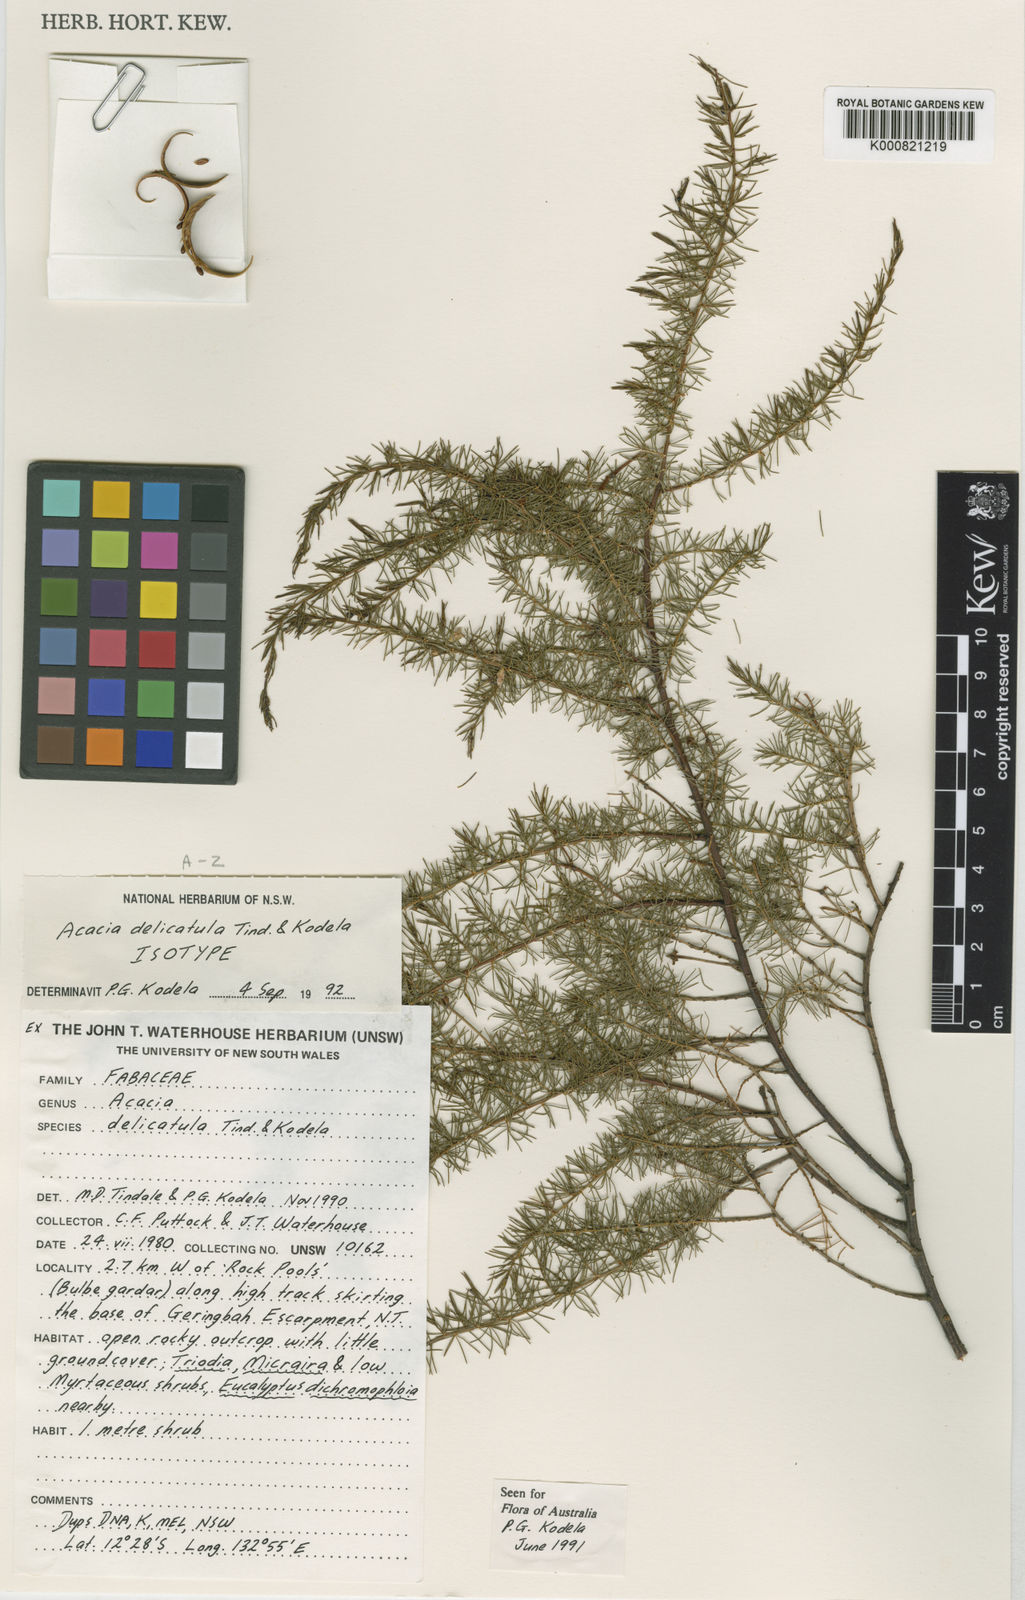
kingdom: Plantae
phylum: Tracheophyta
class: Magnoliopsida
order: Fabales
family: Fabaceae
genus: Acacia
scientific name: Acacia delicatula
